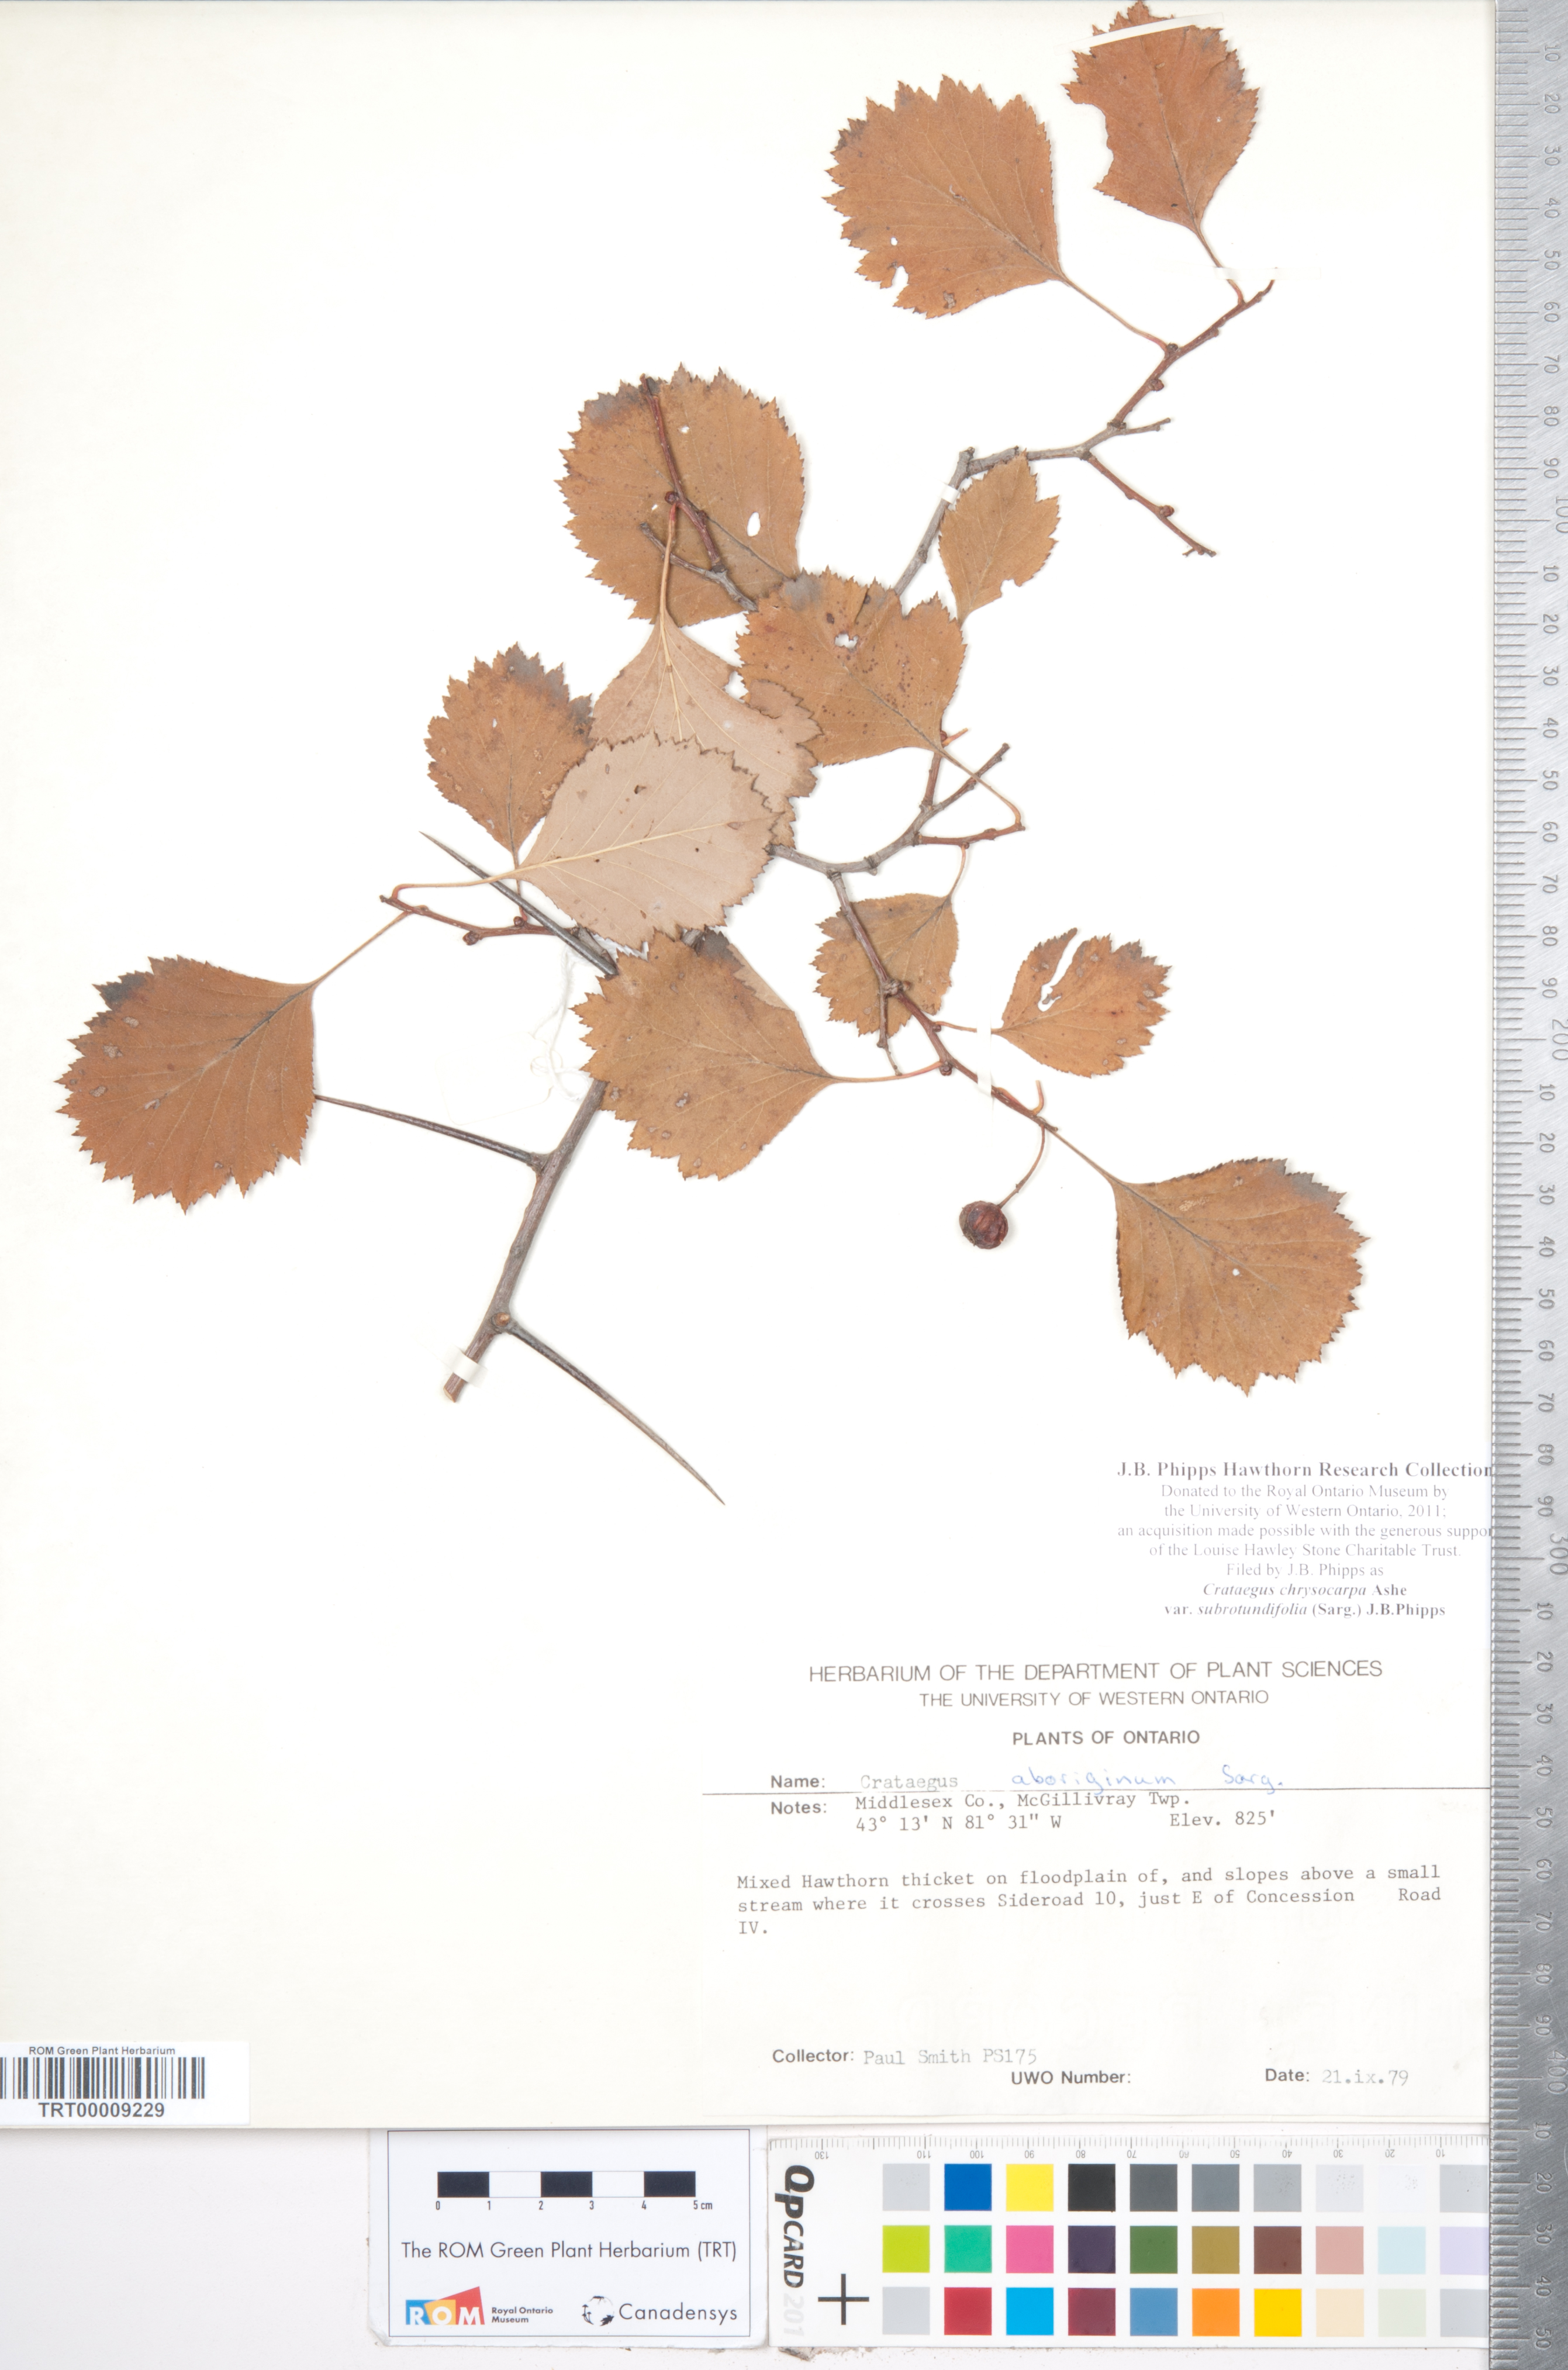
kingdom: Plantae
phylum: Tracheophyta
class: Magnoliopsida
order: Rosales
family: Rosaceae
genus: Crataegus
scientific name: Crataegus chrysocarpa
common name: Fire-berry hawthorn
